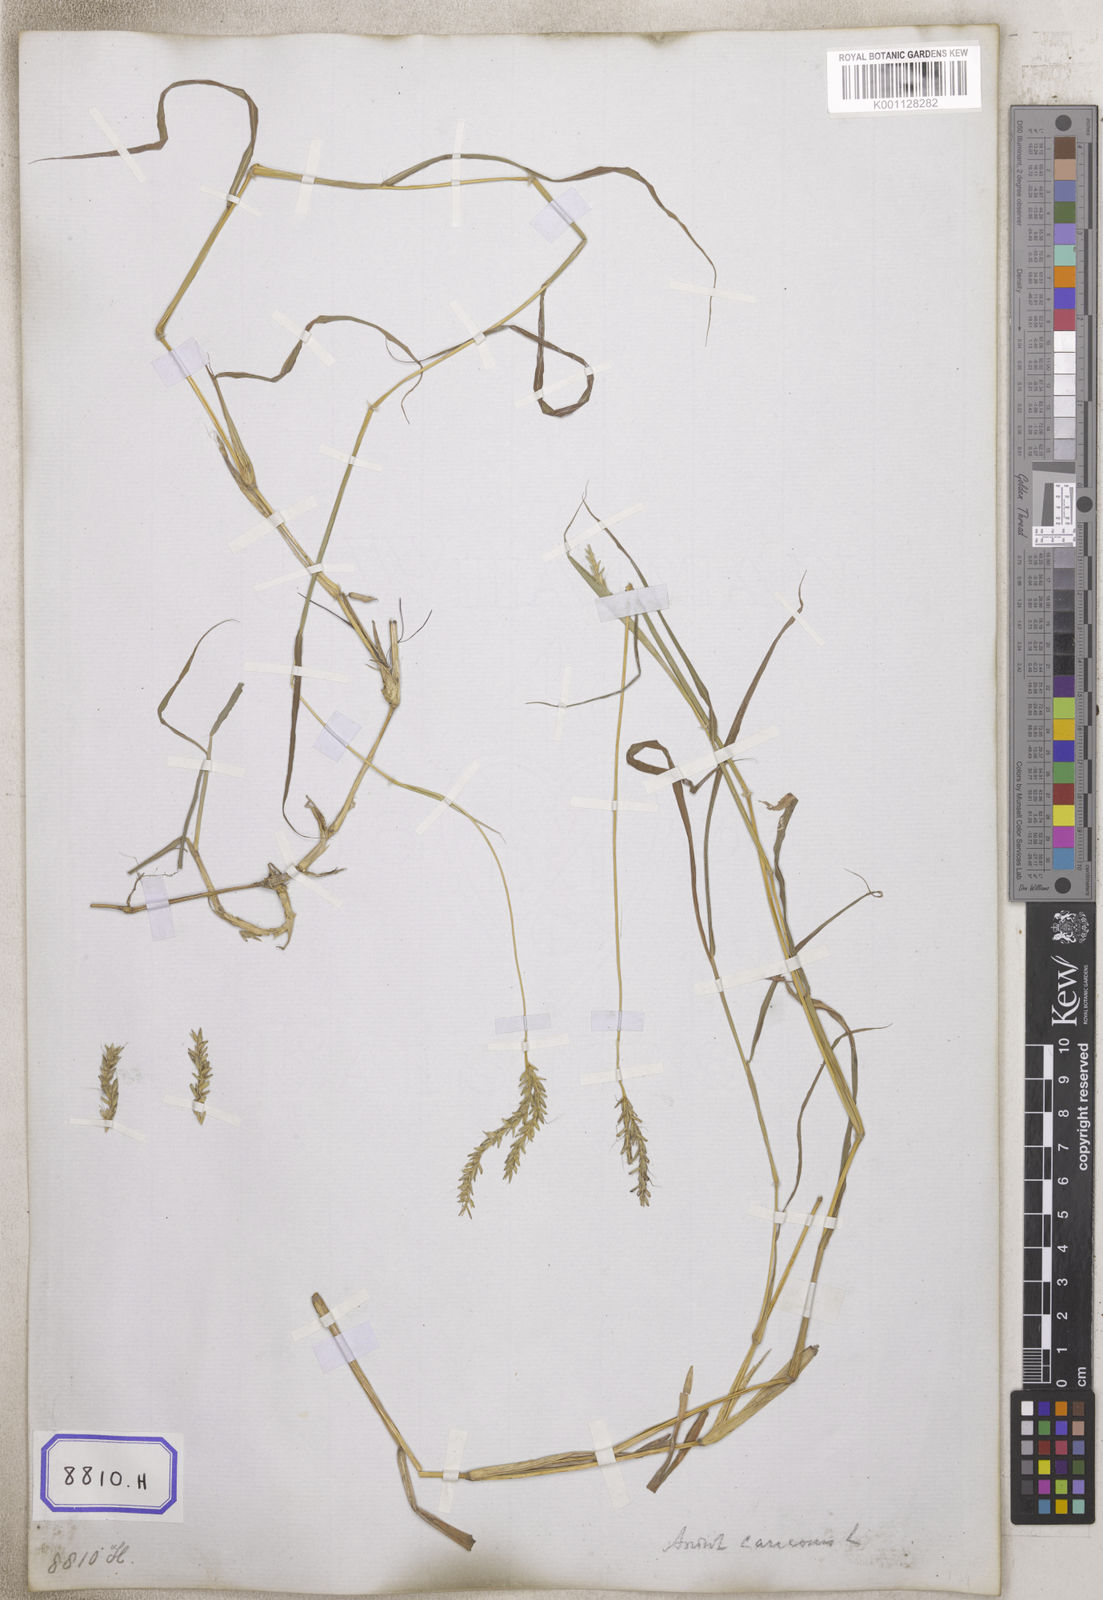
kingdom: Plantae
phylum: Tracheophyta
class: Liliopsida
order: Poales
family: Poaceae
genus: Andropogon
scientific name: Andropogon
